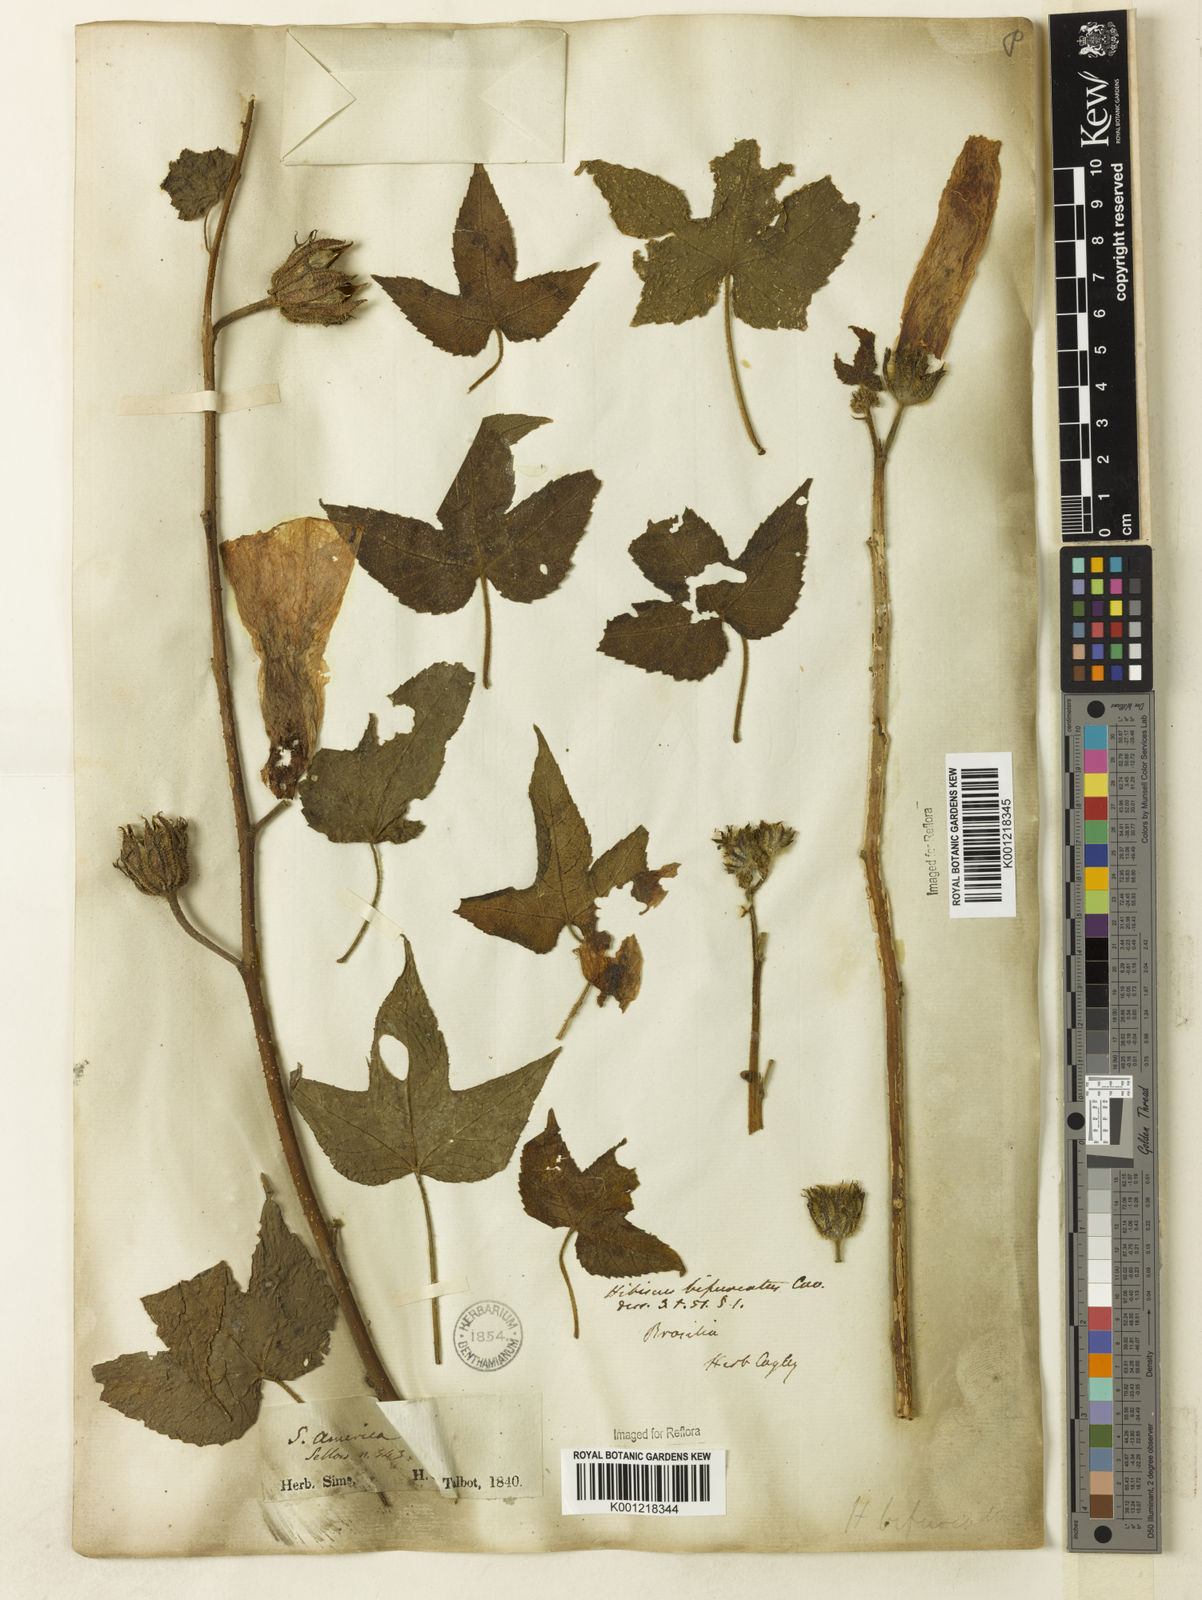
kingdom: Plantae
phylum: Tracheophyta
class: Magnoliopsida
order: Malvales
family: Malvaceae
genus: Hibiscus
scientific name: Hibiscus bifurcatus
